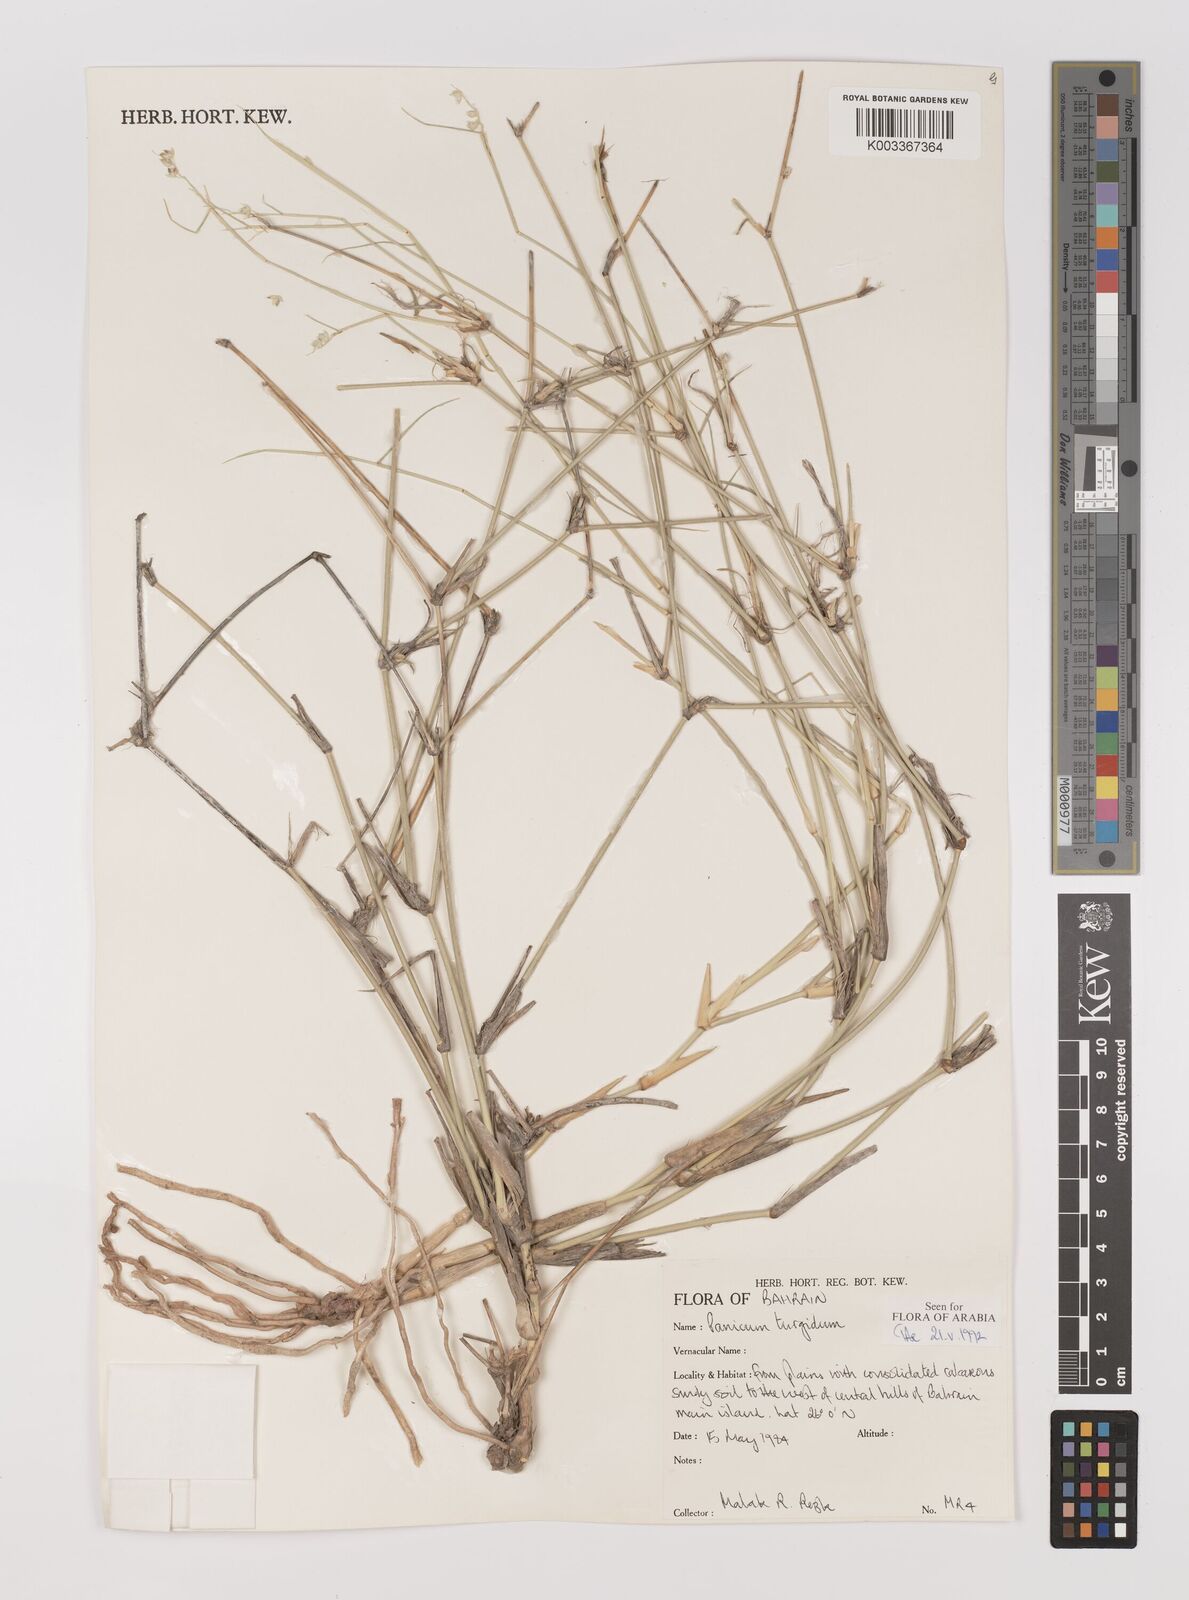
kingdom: Plantae
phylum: Tracheophyta
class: Liliopsida
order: Poales
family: Poaceae
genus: Panicum
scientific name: Panicum turgidum
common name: Desert grass
